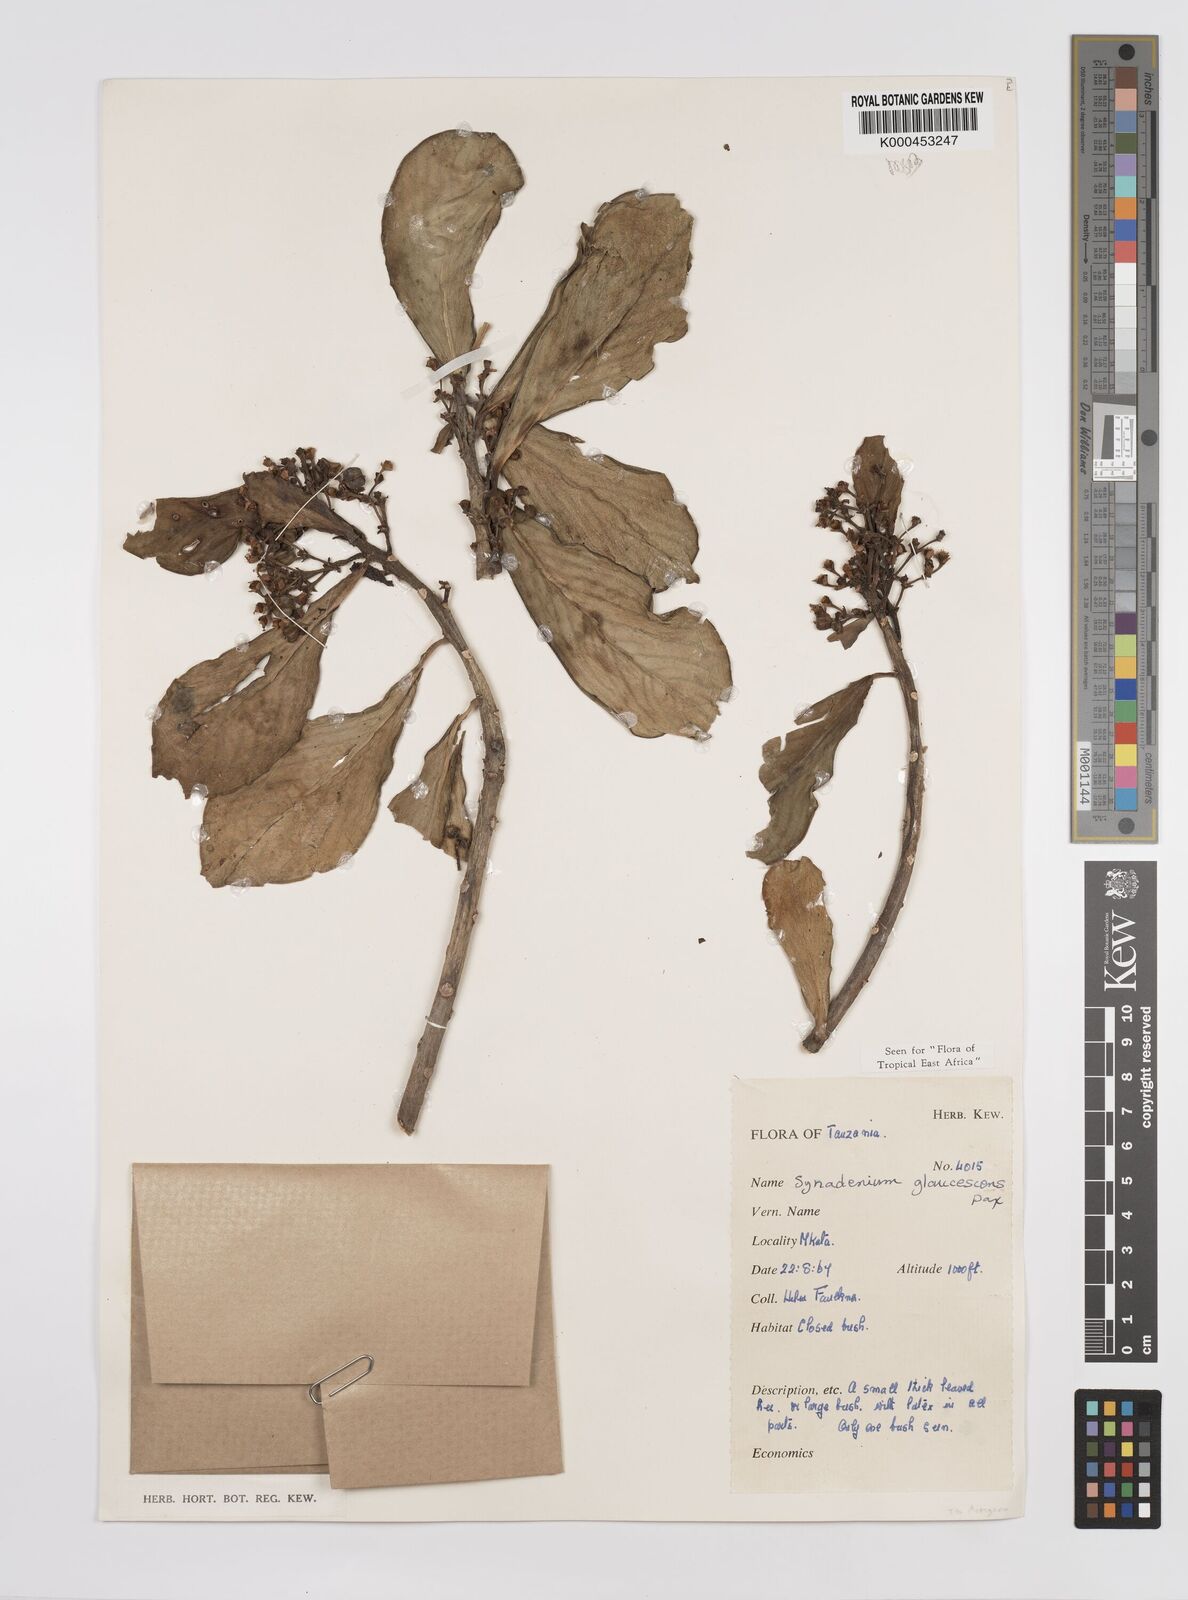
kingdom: Plantae
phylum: Tracheophyta
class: Magnoliopsida
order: Malpighiales
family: Euphorbiaceae
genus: Euphorbia
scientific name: Euphorbia neoglaucescens
